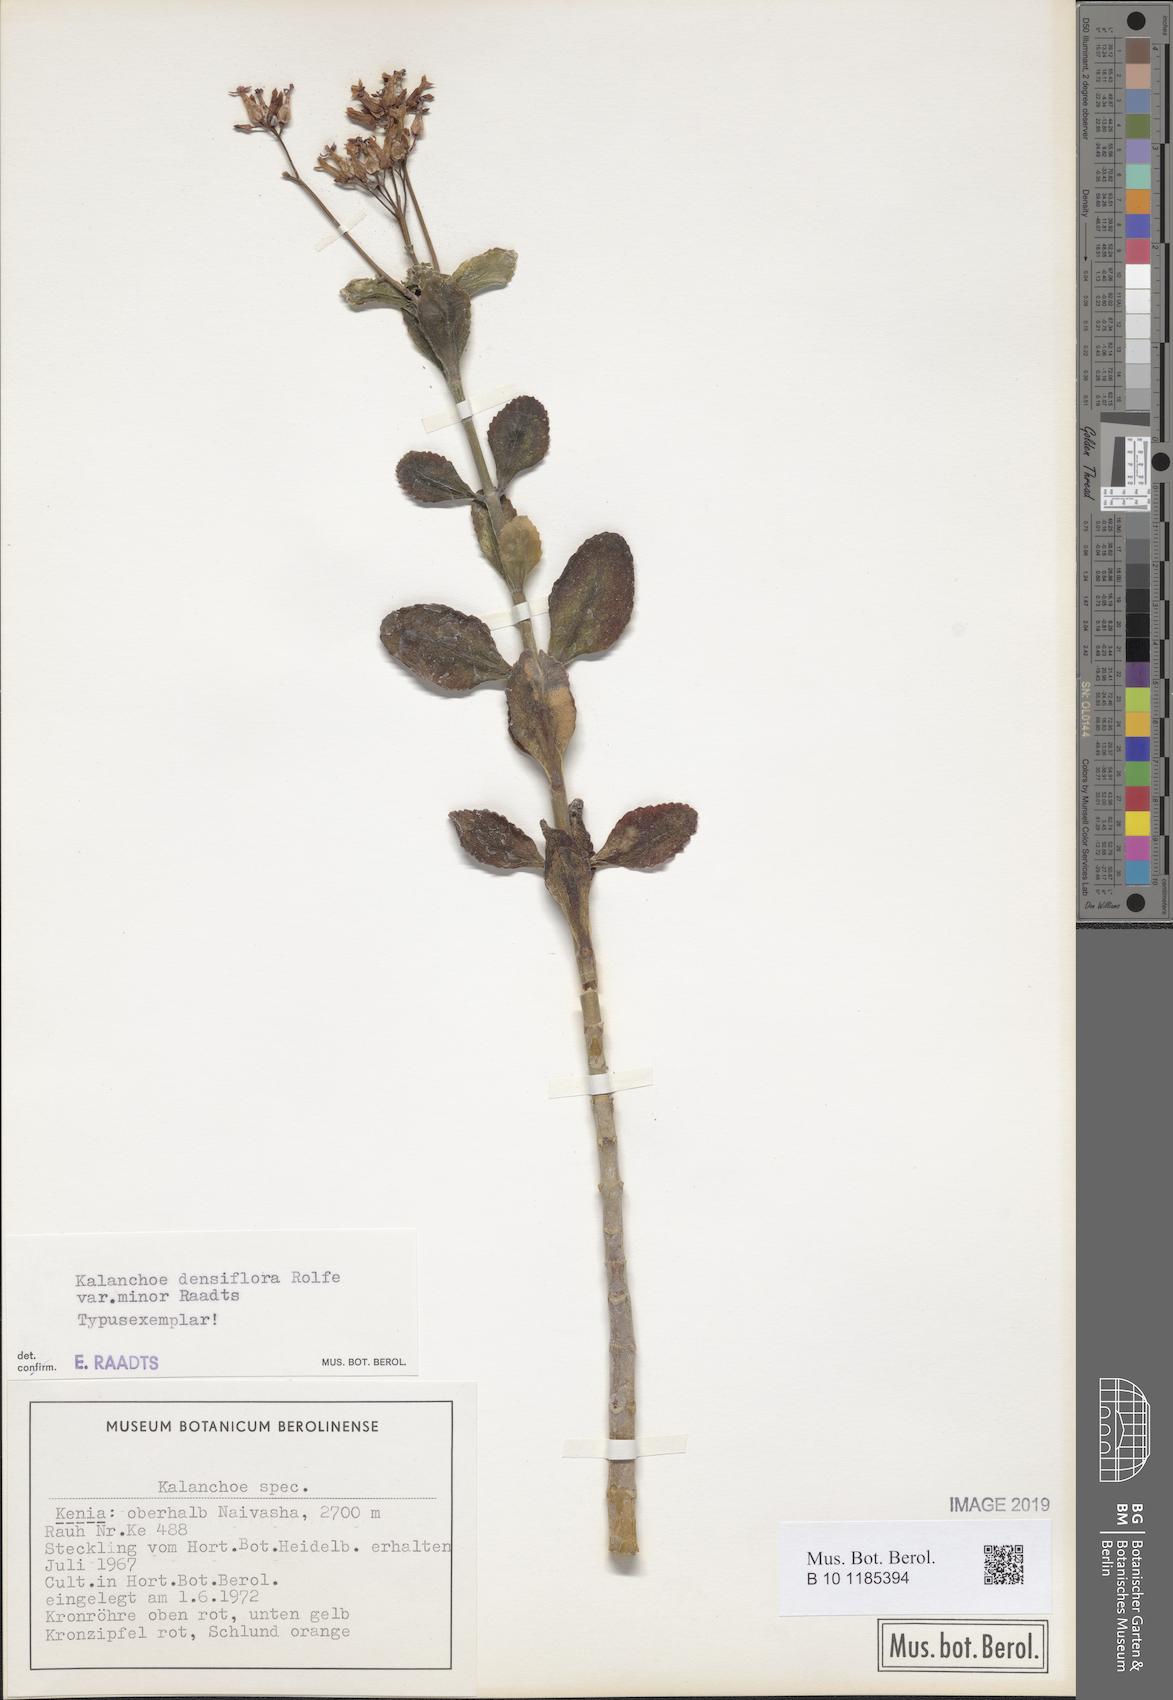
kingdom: Plantae
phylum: Tracheophyta
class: Magnoliopsida
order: Saxifragales
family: Crassulaceae
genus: Kalanchoe
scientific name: Kalanchoe densiflora
